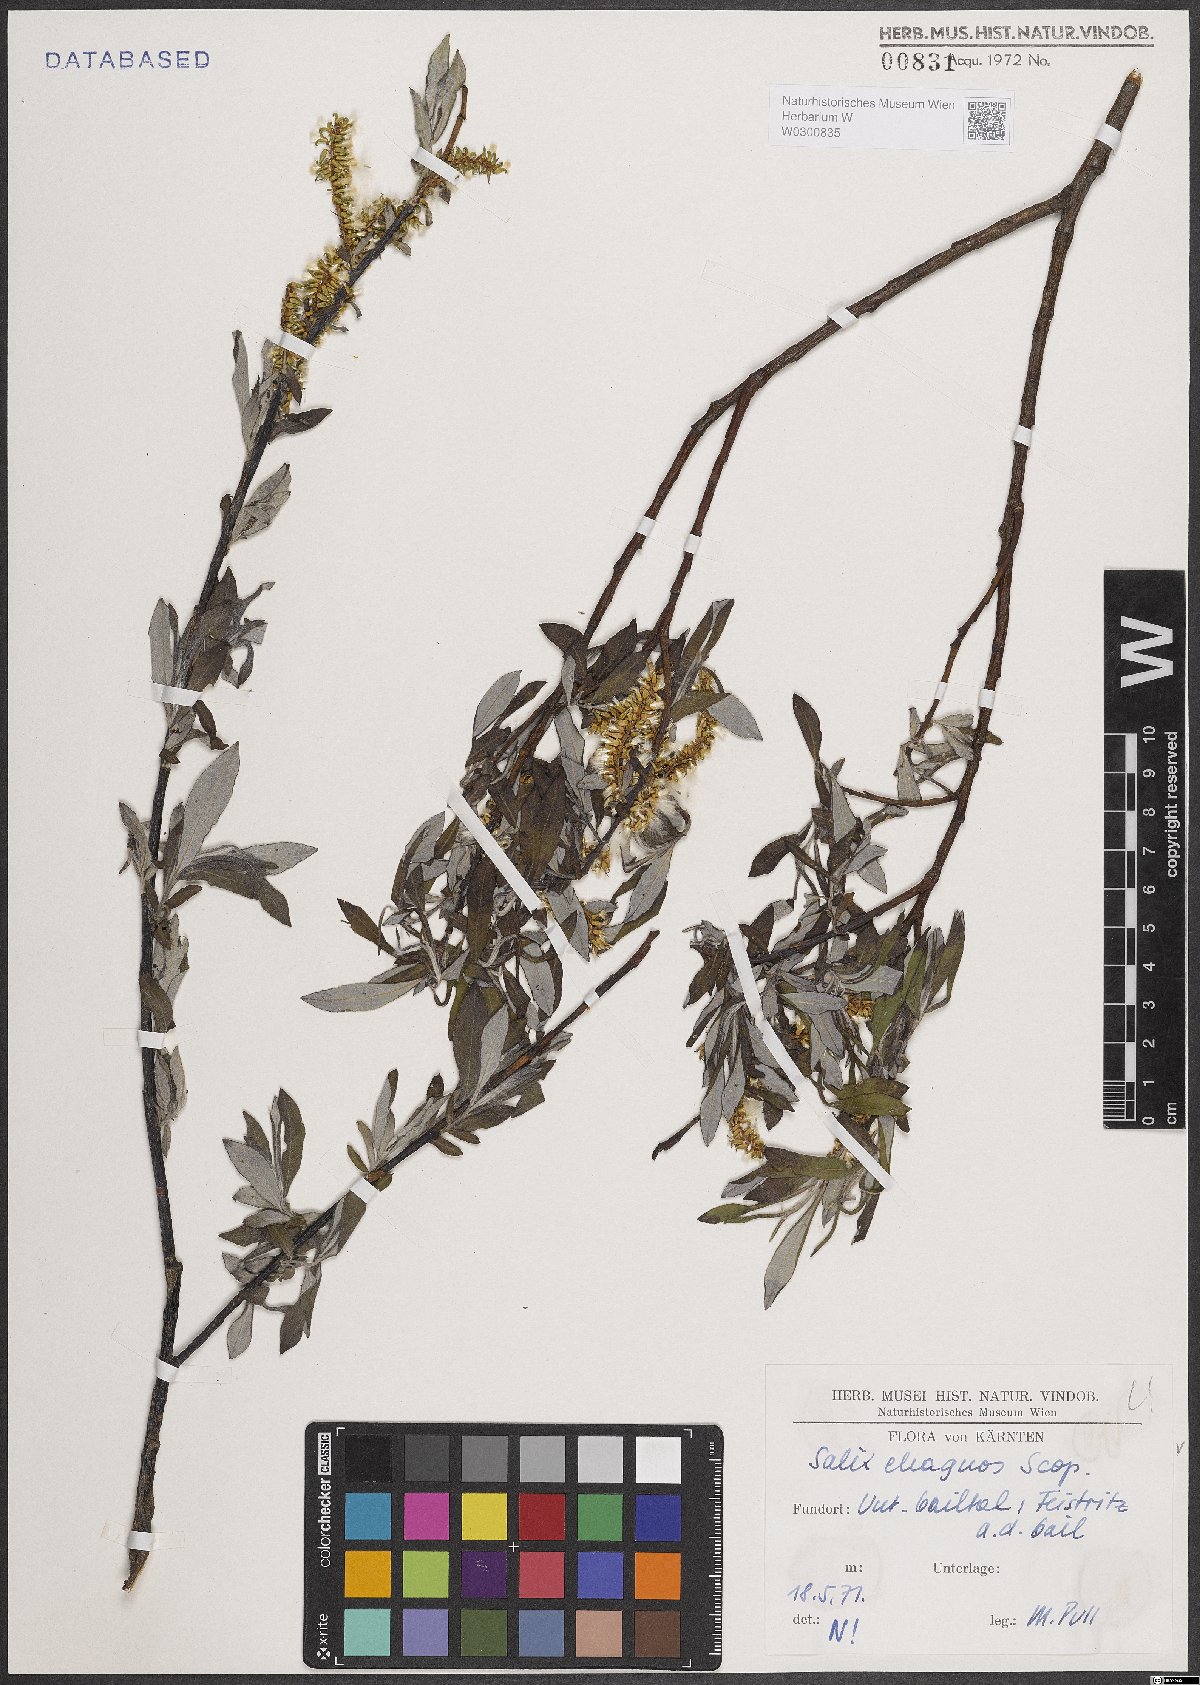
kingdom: Plantae
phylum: Tracheophyta
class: Magnoliopsida
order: Malpighiales
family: Salicaceae
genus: Salix
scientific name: Salix eleagnos
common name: Elaeagnus willow
